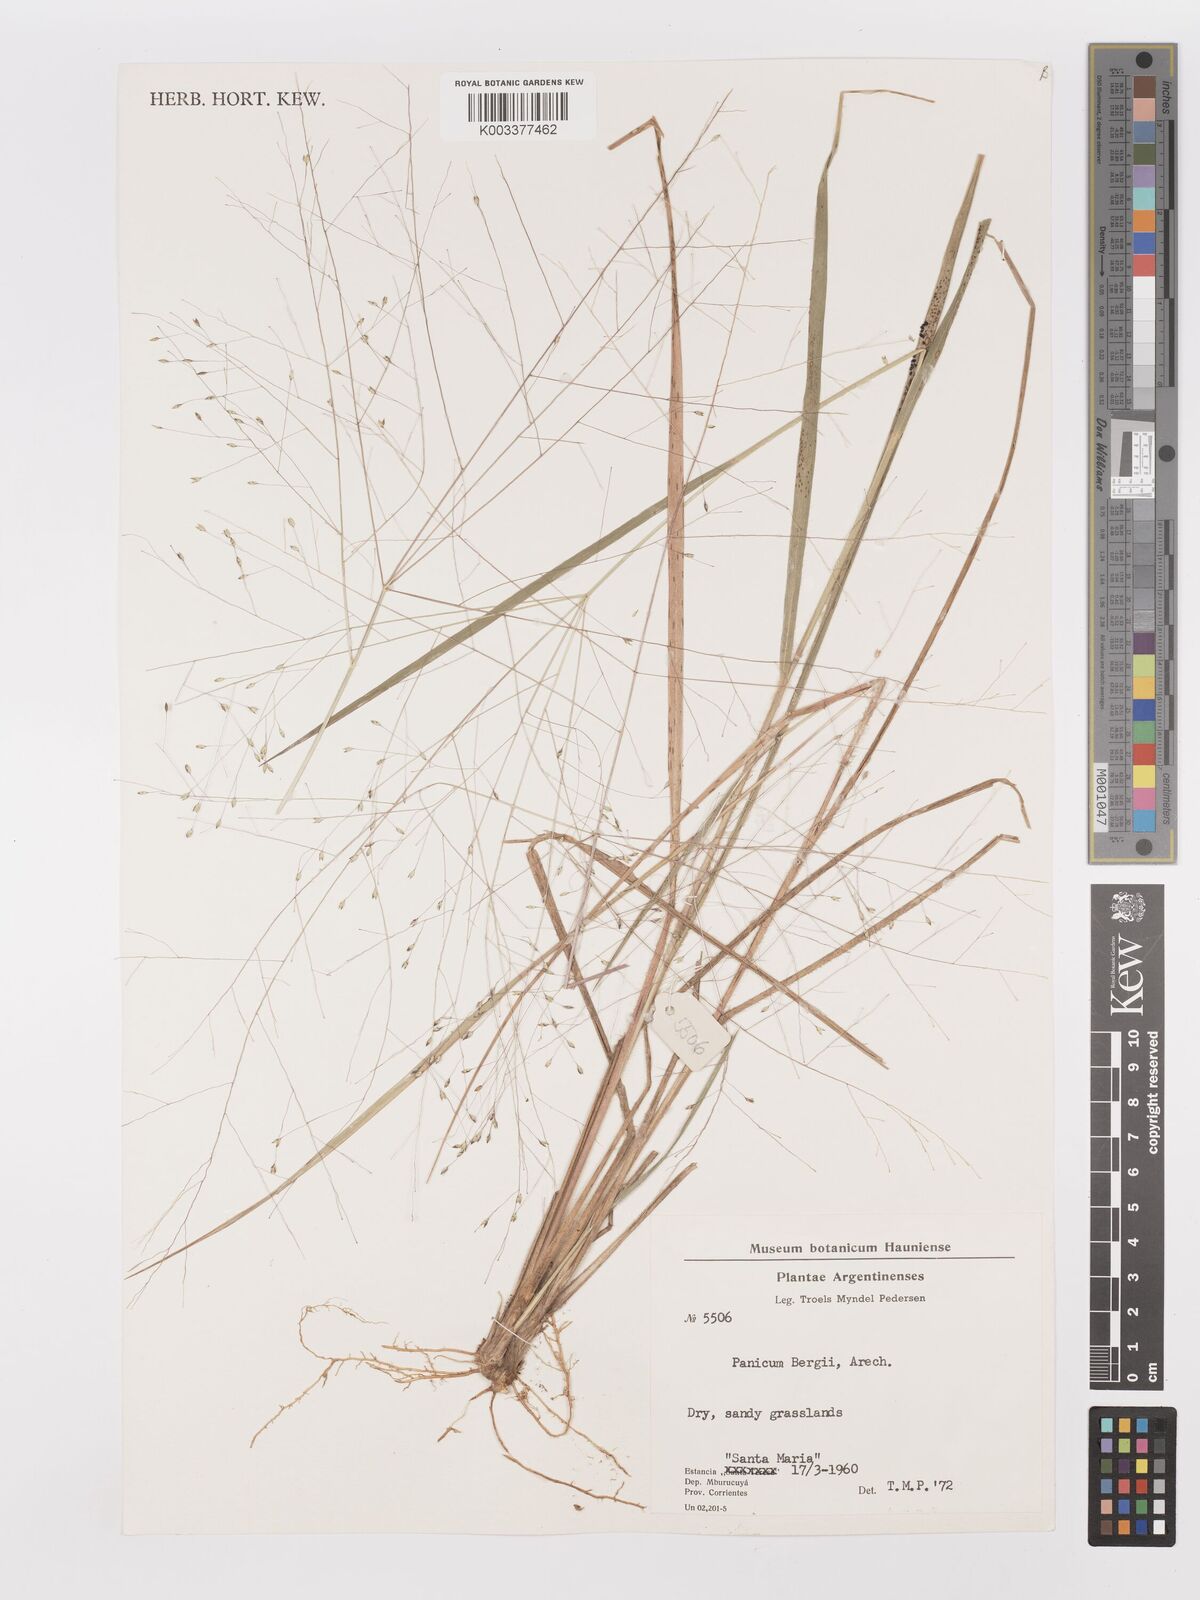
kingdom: Plantae
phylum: Tracheophyta
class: Liliopsida
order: Poales
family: Poaceae
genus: Panicum
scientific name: Panicum bergii
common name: Berg's panicgrass
